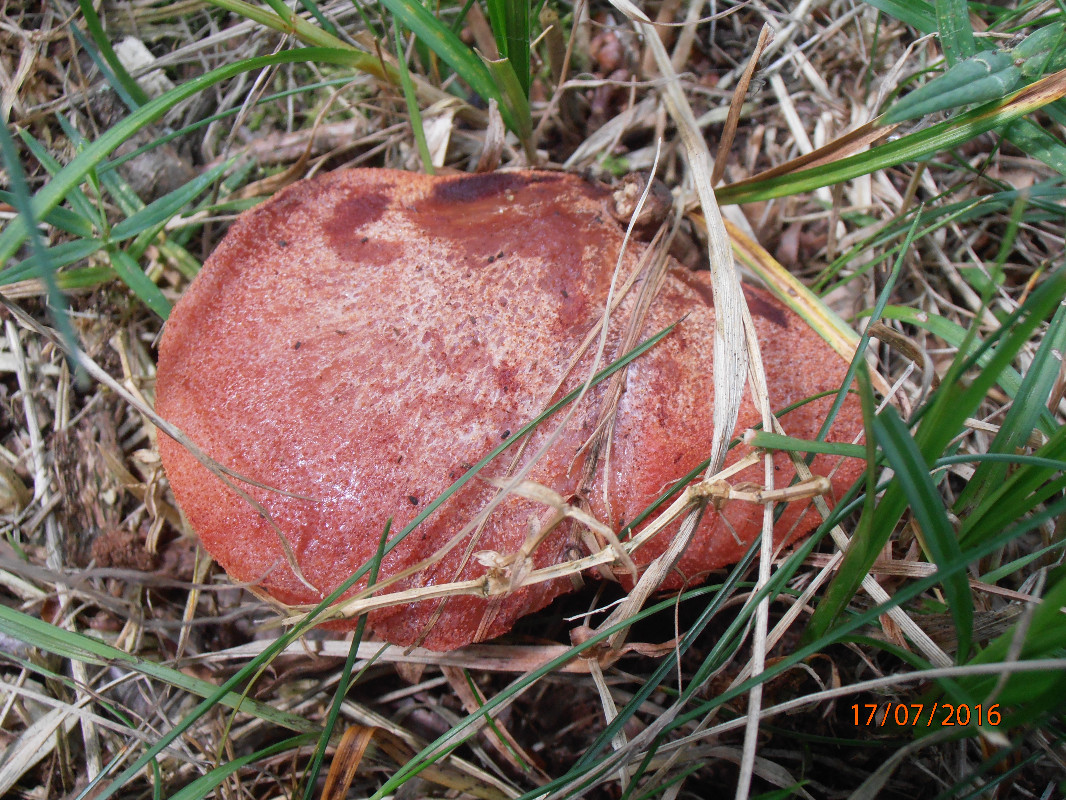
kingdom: Fungi
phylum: Basidiomycota
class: Agaricomycetes
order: Agaricales
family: Fistulinaceae
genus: Fistulina
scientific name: Fistulina hepatica
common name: oksetunge
